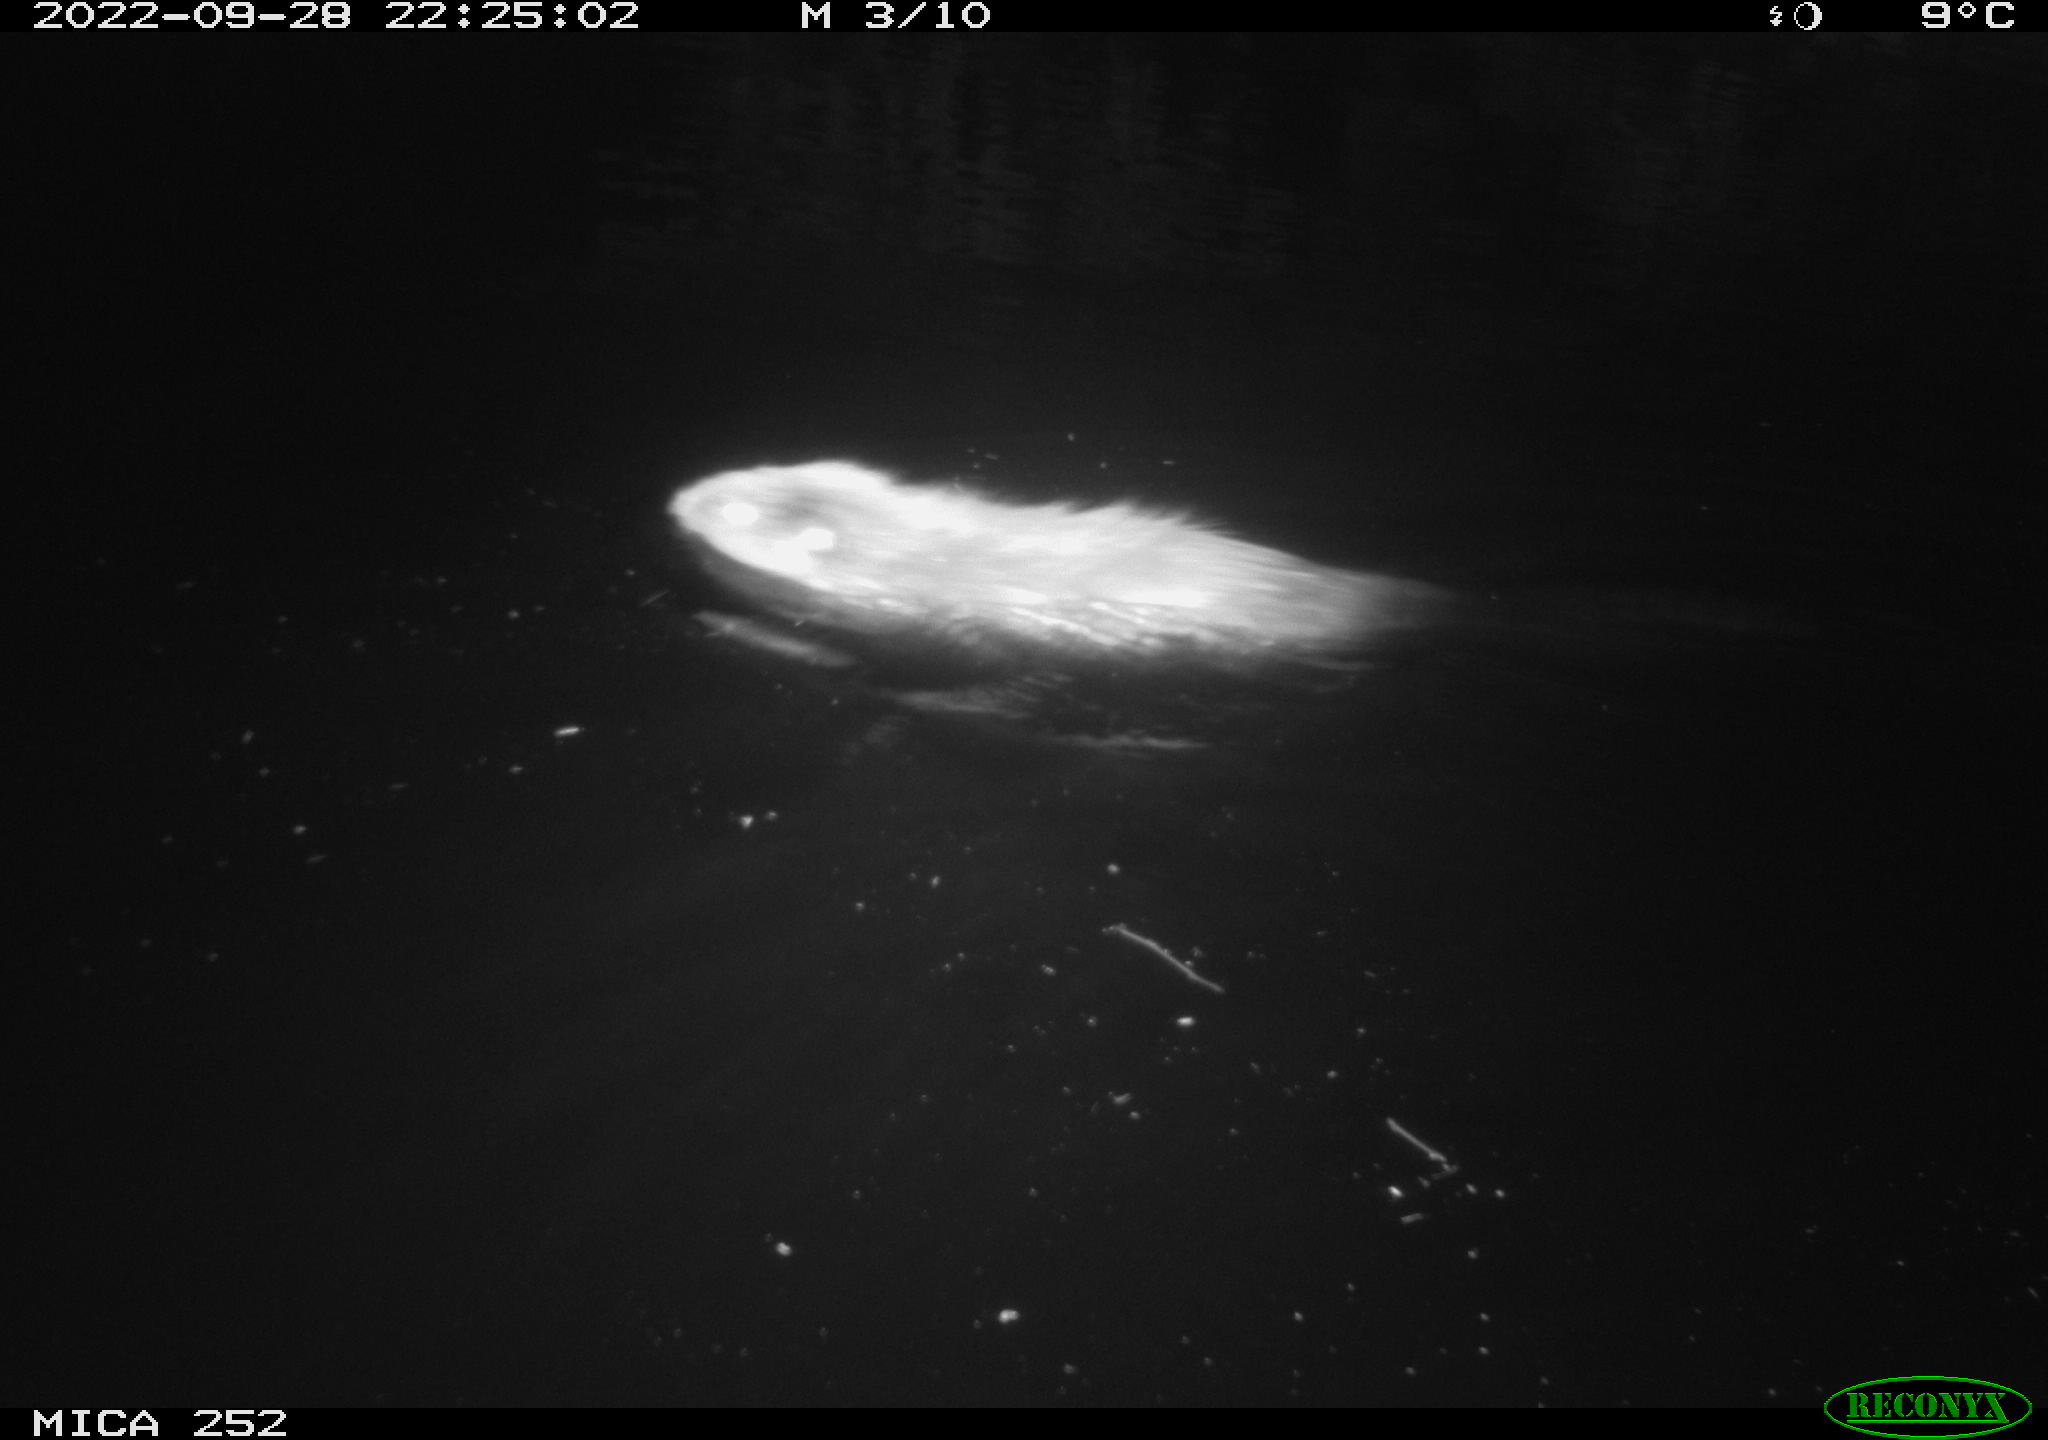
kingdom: Animalia
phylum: Chordata
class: Mammalia
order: Rodentia
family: Castoridae
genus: Castor
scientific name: Castor fiber
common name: Eurasian beaver
